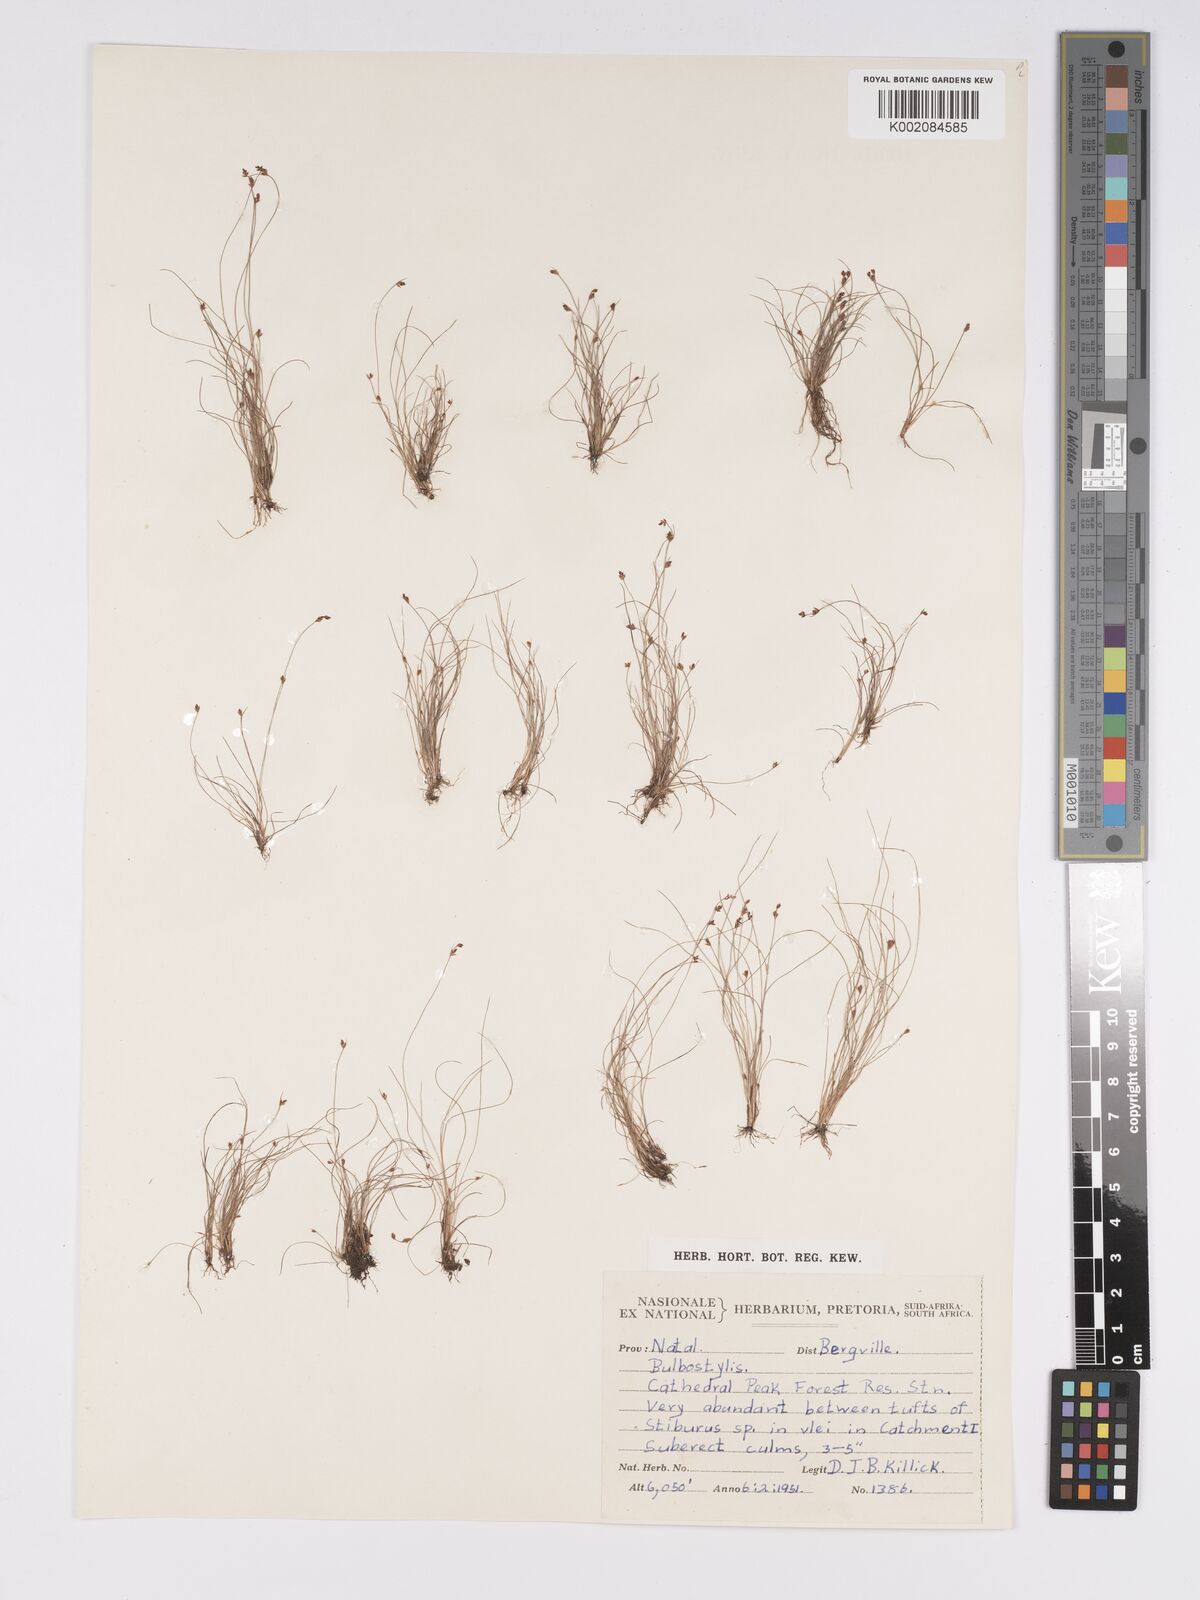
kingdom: Plantae
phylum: Tracheophyta
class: Liliopsida
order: Poales
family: Cyperaceae
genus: Bulbostylis
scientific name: Bulbostylis capillaris
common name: Densetuft hairsedge
